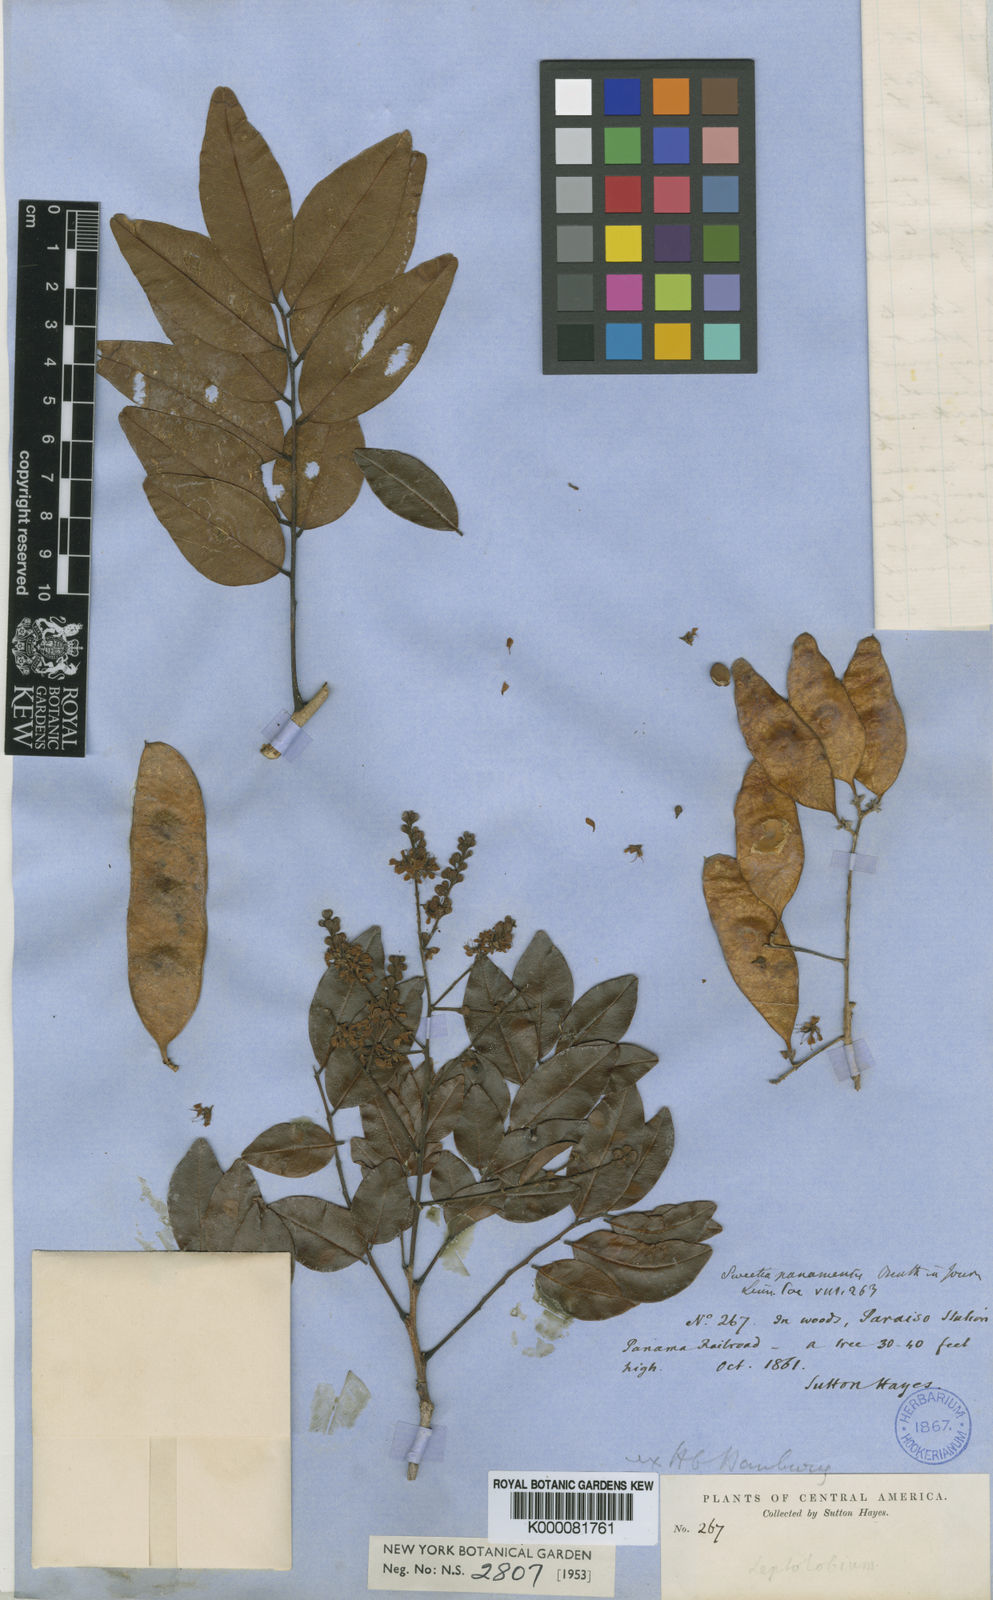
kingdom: Plantae
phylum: Tracheophyta
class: Magnoliopsida
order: Fabales
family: Fabaceae
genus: Acosmium
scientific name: Acosmium
